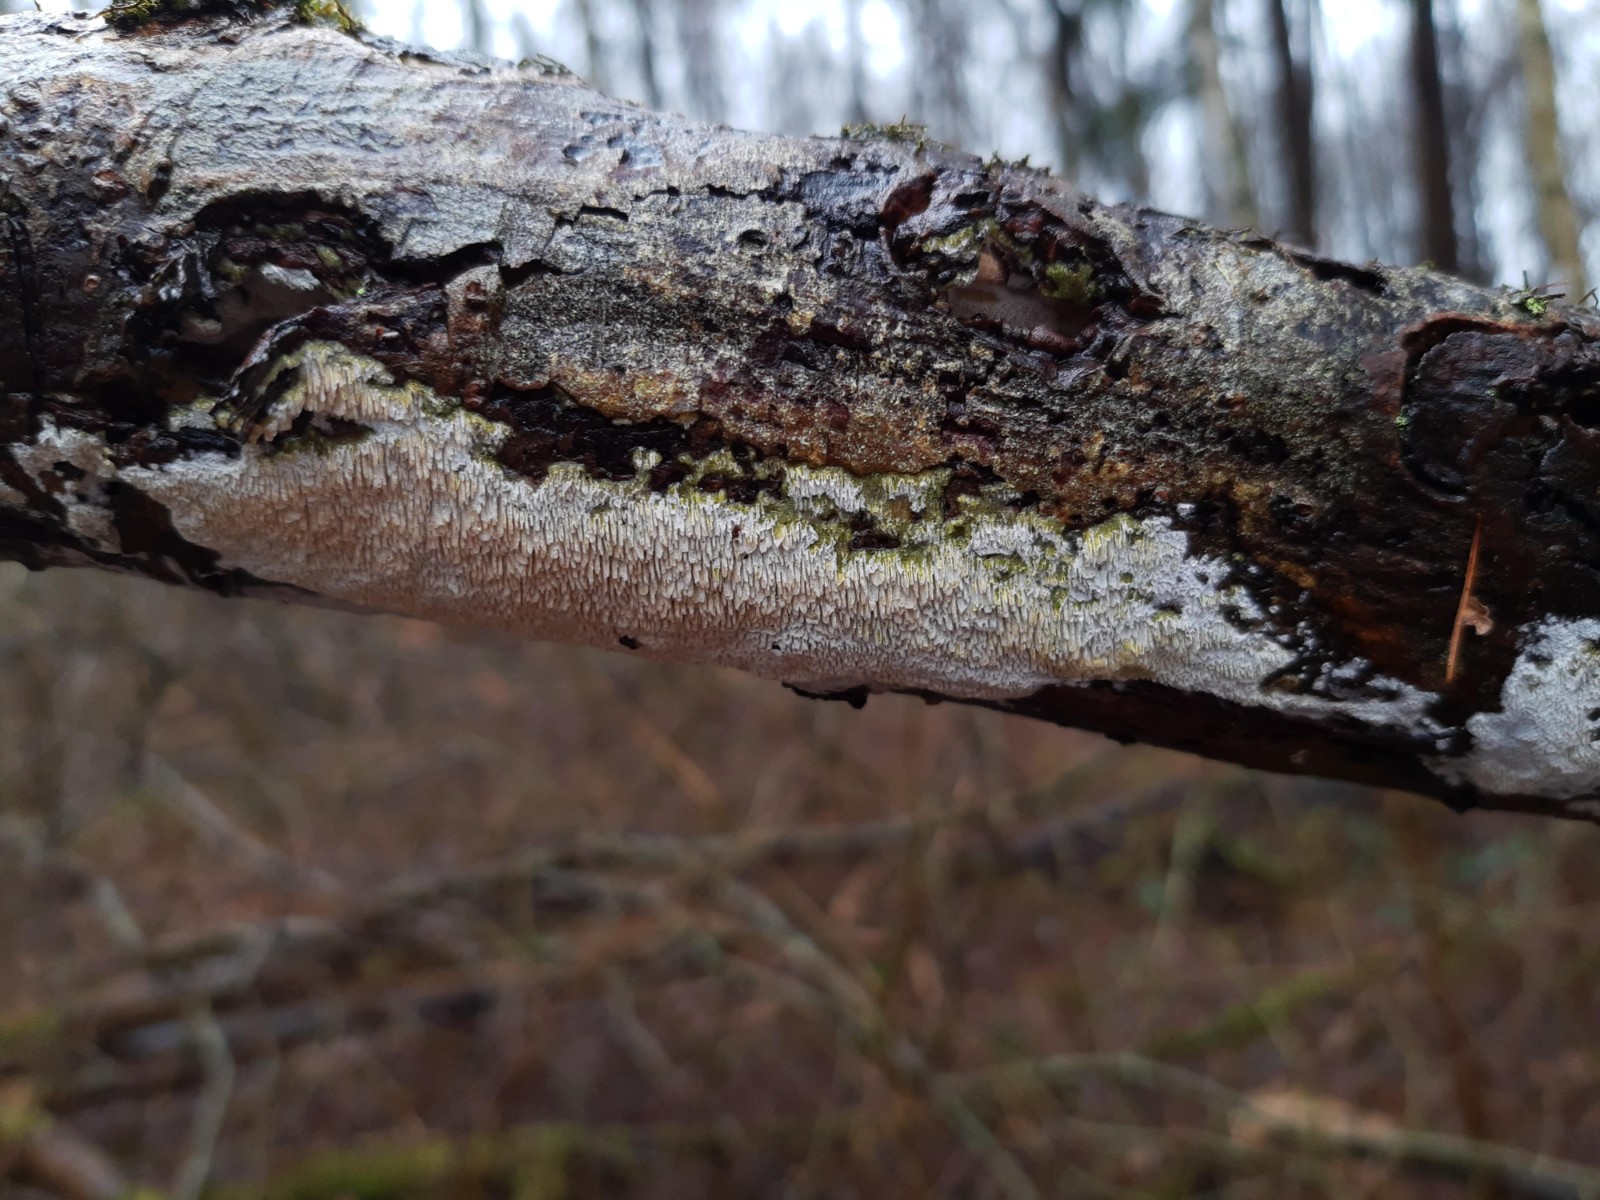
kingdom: Fungi
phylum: Basidiomycota
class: Agaricomycetes
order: Hymenochaetales
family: Schizoporaceae
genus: Schizopora
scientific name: Schizopora paradoxa
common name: hvid tandsvamp
